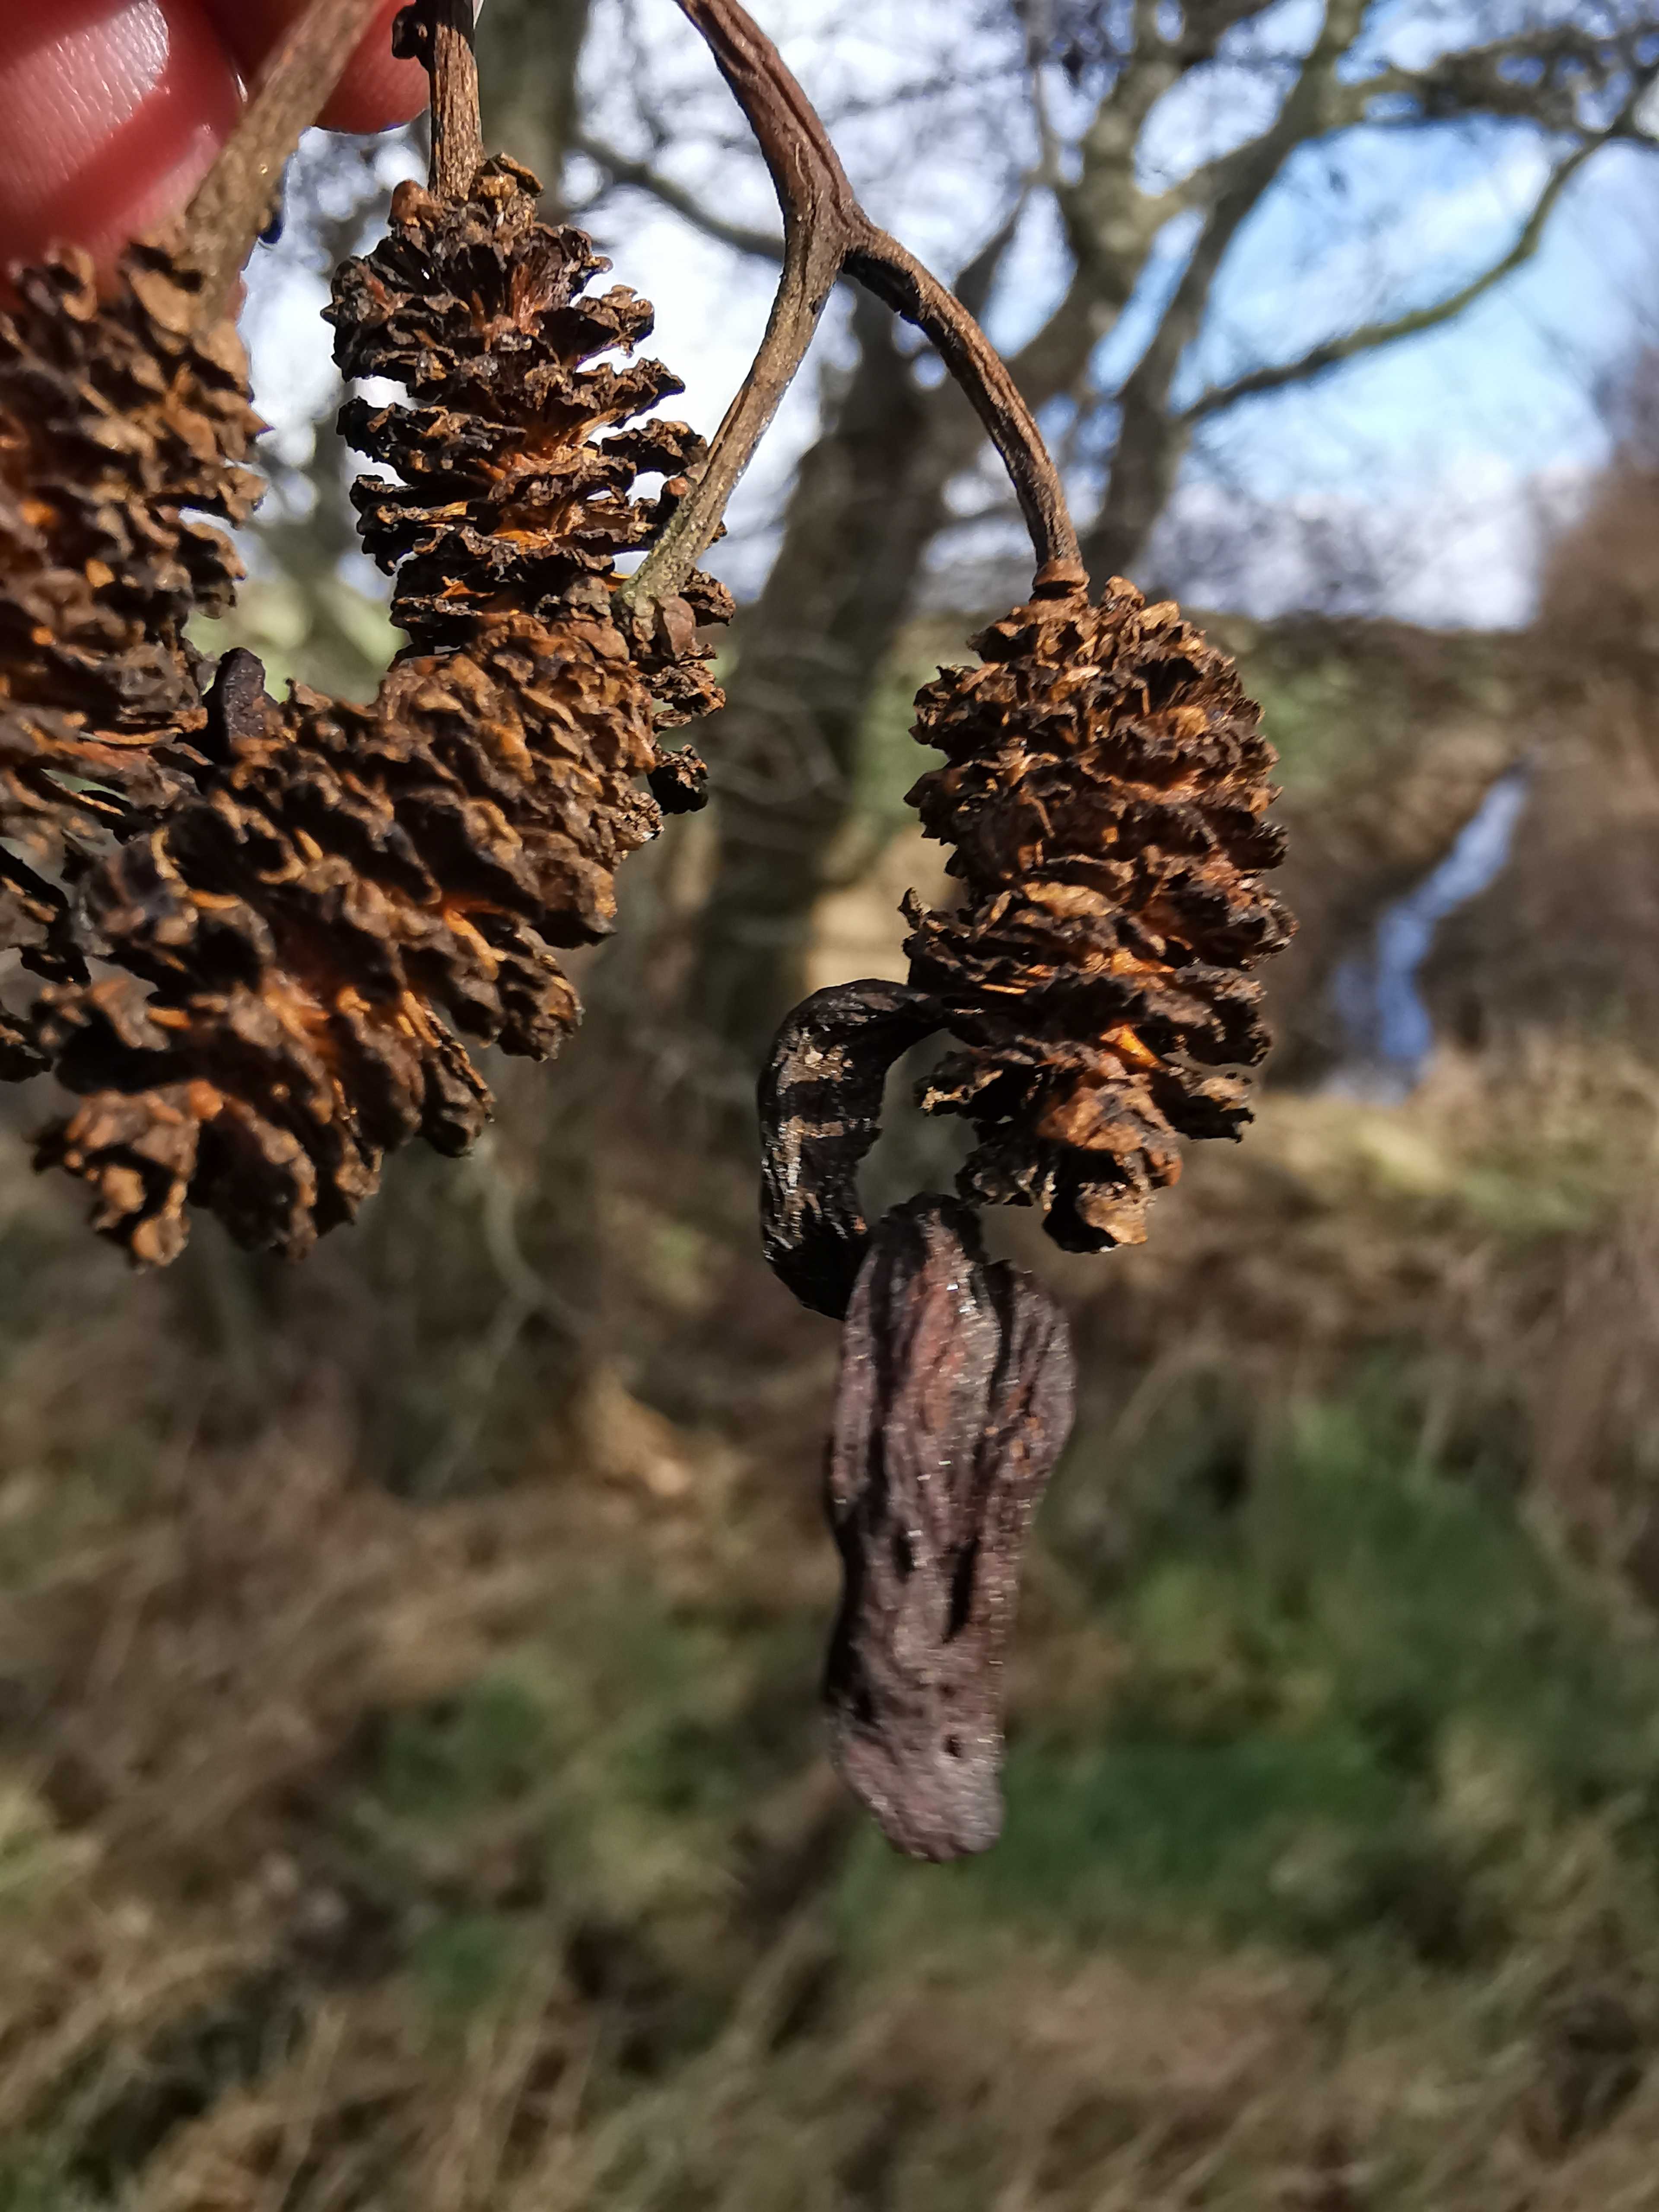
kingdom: Fungi
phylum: Ascomycota
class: Taphrinomycetes
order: Taphrinales
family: Taphrinaceae
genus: Taphrina
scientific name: Taphrina alni
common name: Alder tongue
